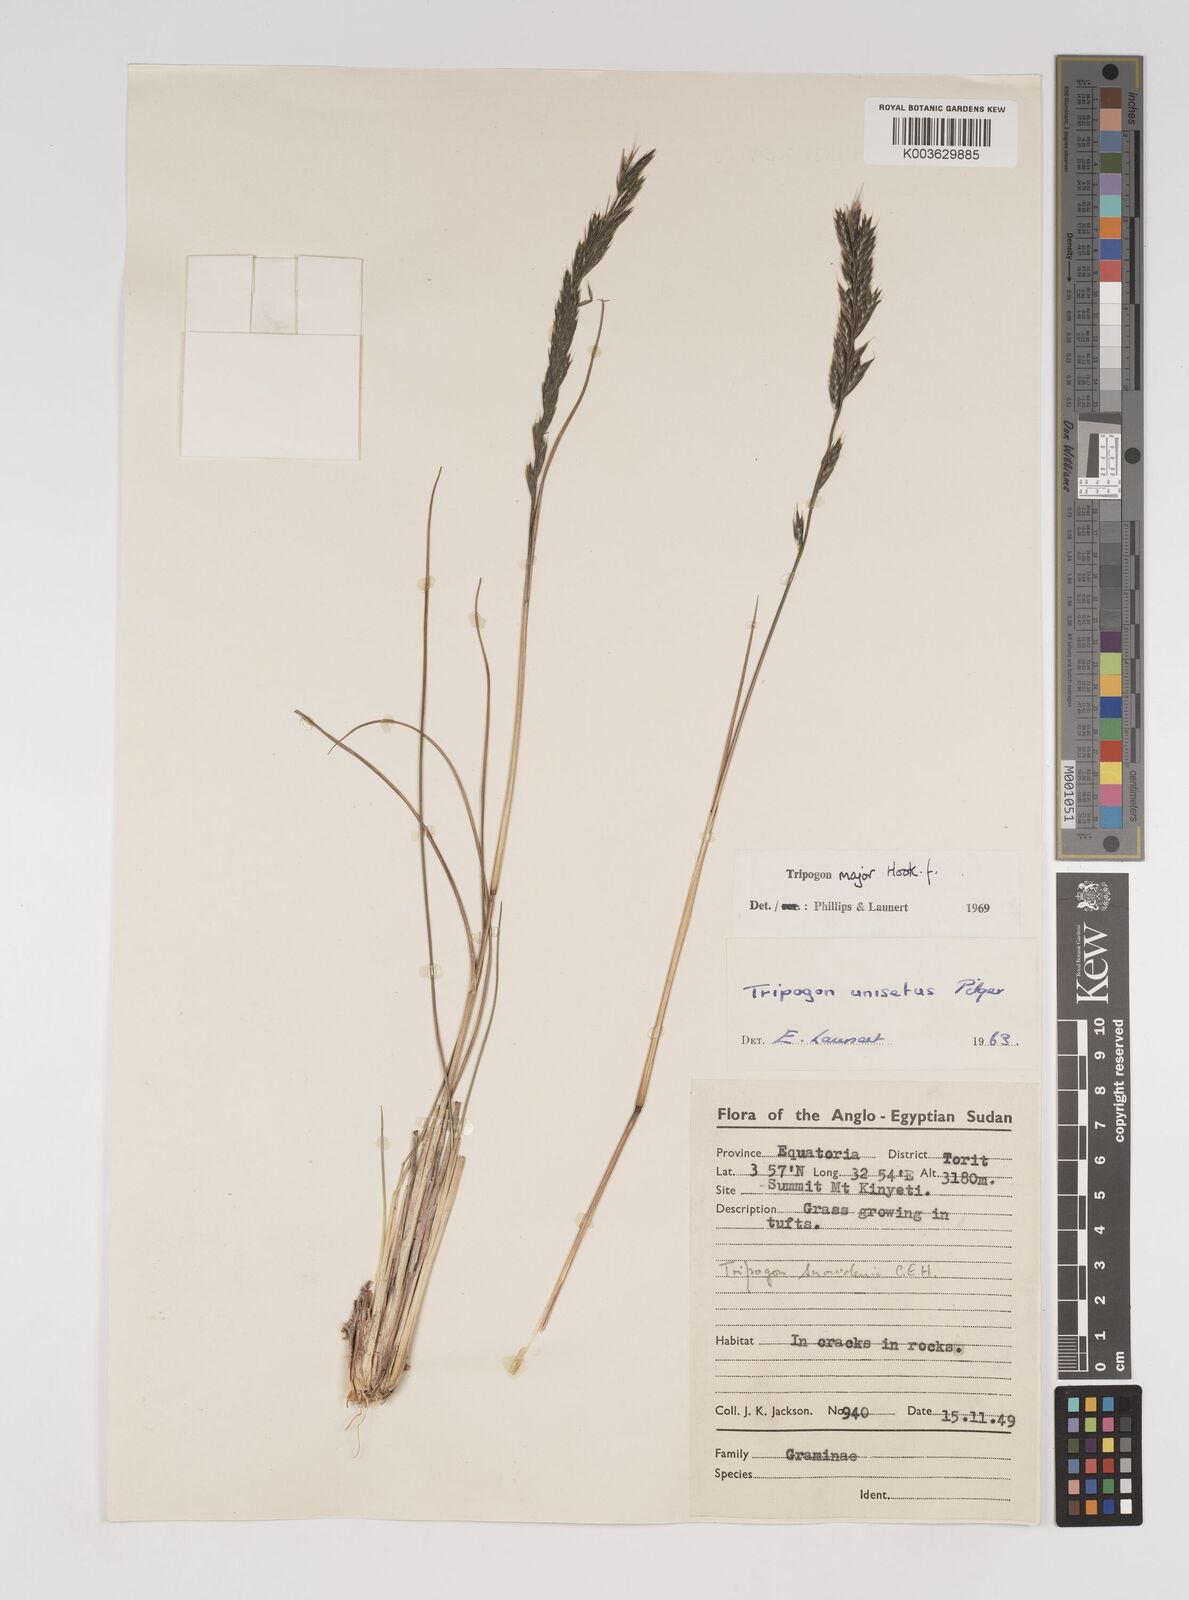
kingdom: Plantae
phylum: Tracheophyta
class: Liliopsida
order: Poales
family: Poaceae
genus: Tripogon
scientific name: Tripogon major
